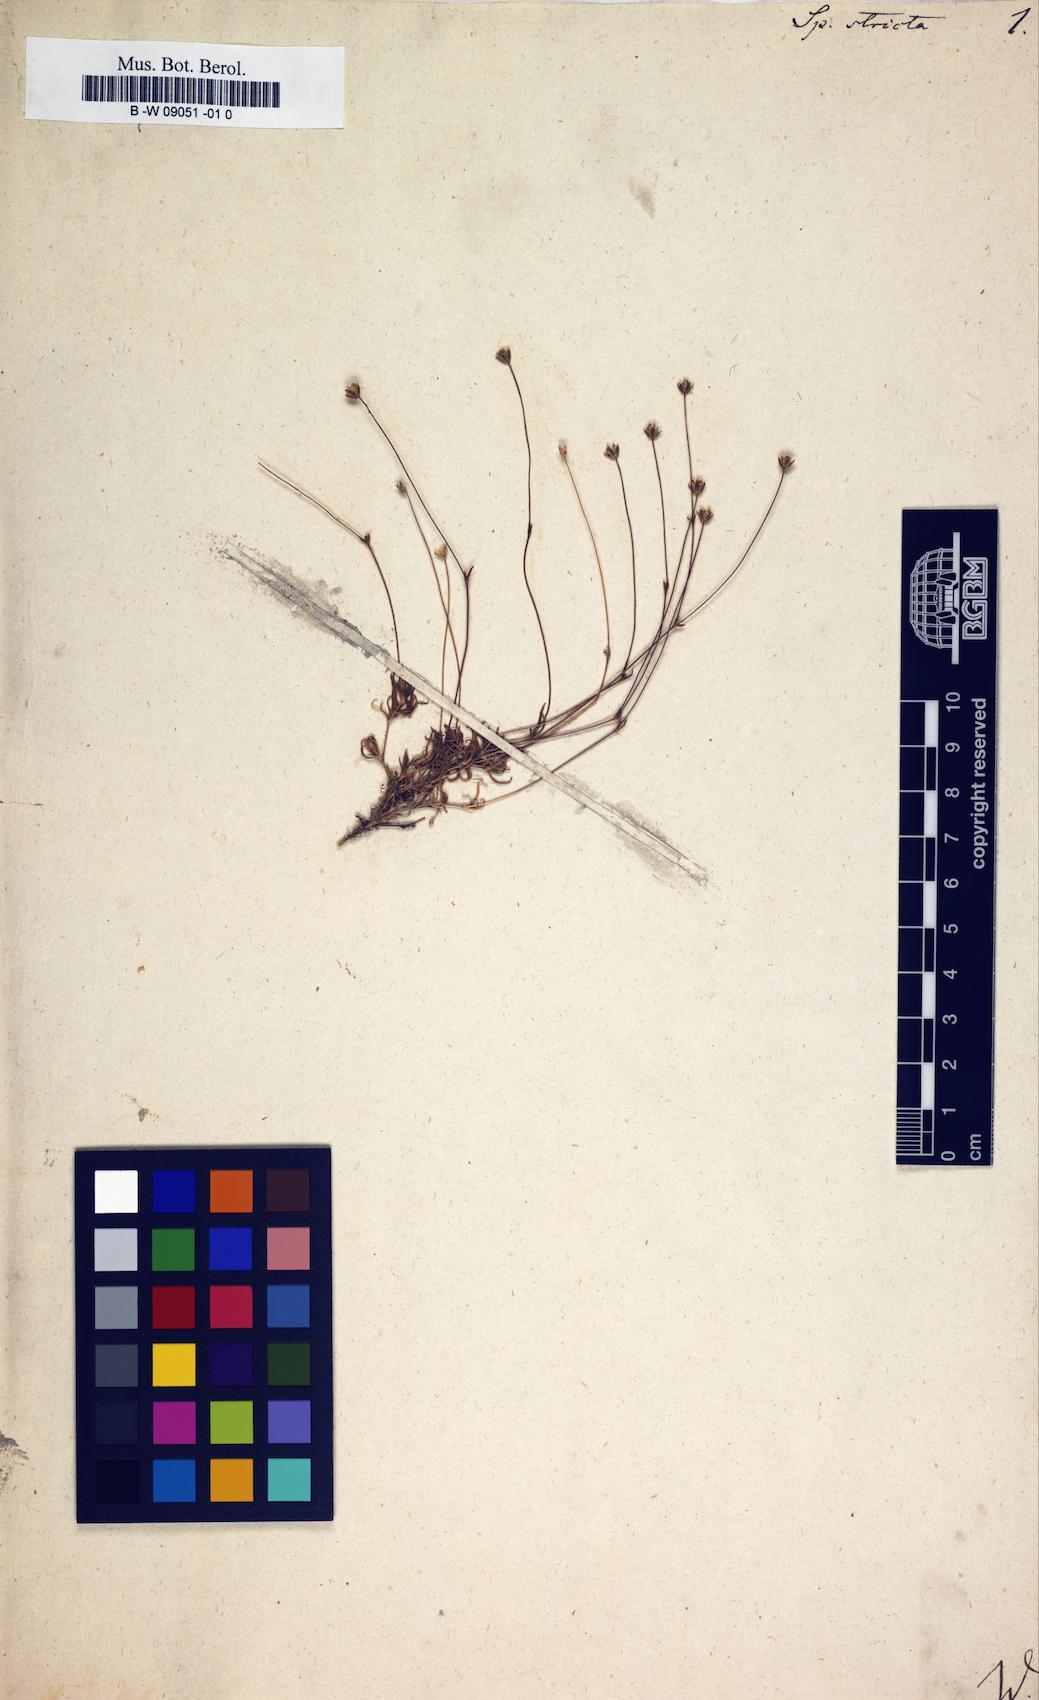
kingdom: Plantae
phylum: Tracheophyta
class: Magnoliopsida
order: Caryophyllales
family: Caryophyllaceae
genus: Sabulina
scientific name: Sabulina stricta
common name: Bog sandwort
